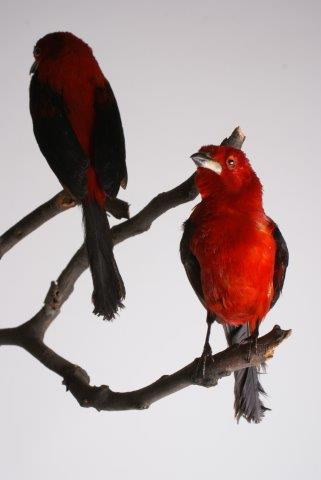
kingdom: Animalia
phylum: Chordata
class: Aves
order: Passeriformes
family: Thraupidae
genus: Ramphocelus
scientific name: Ramphocelus bresilia
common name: Brazilian tanager
